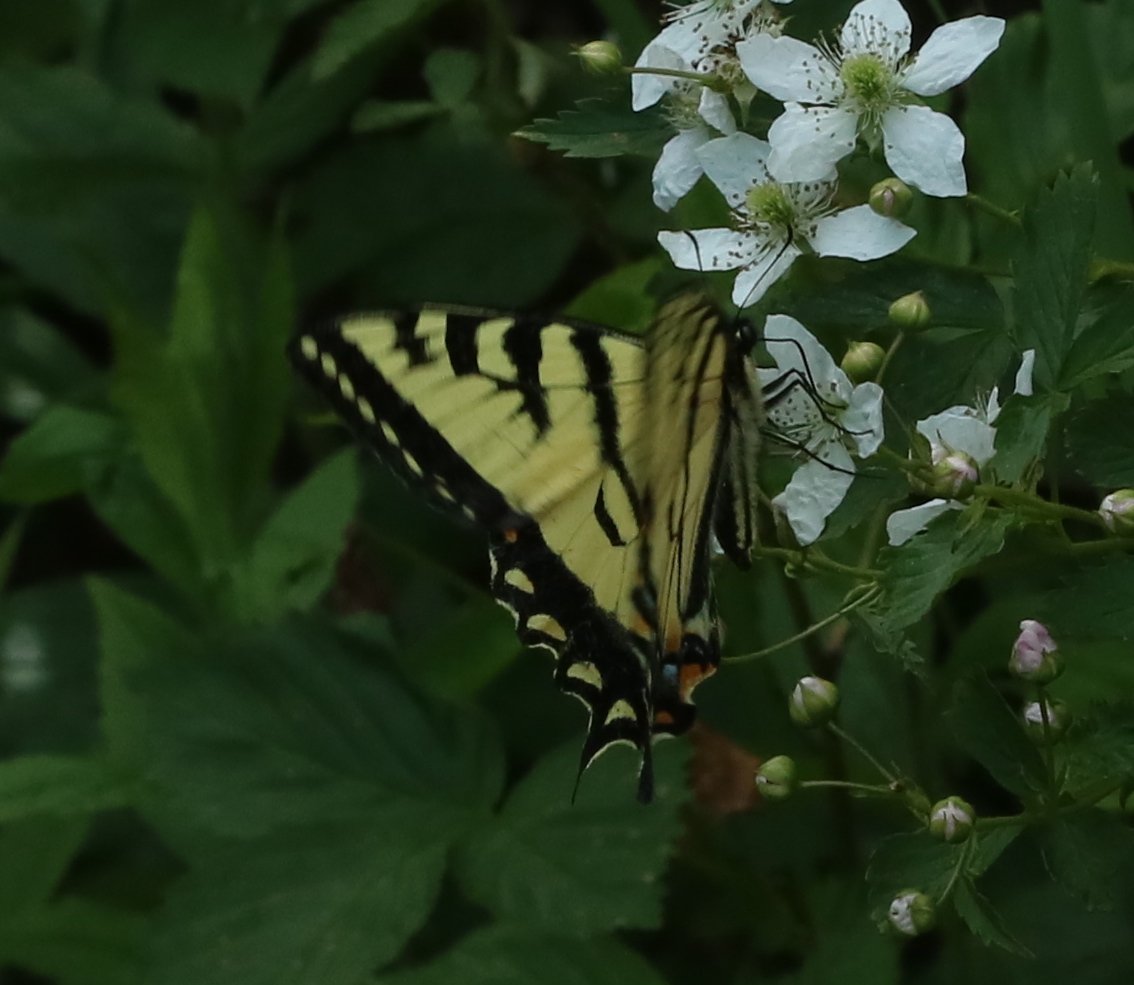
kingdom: Animalia
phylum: Arthropoda
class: Insecta
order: Lepidoptera
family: Papilionidae
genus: Pterourus
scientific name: Pterourus canadensis
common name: Canadian Tiger Swallowtail
